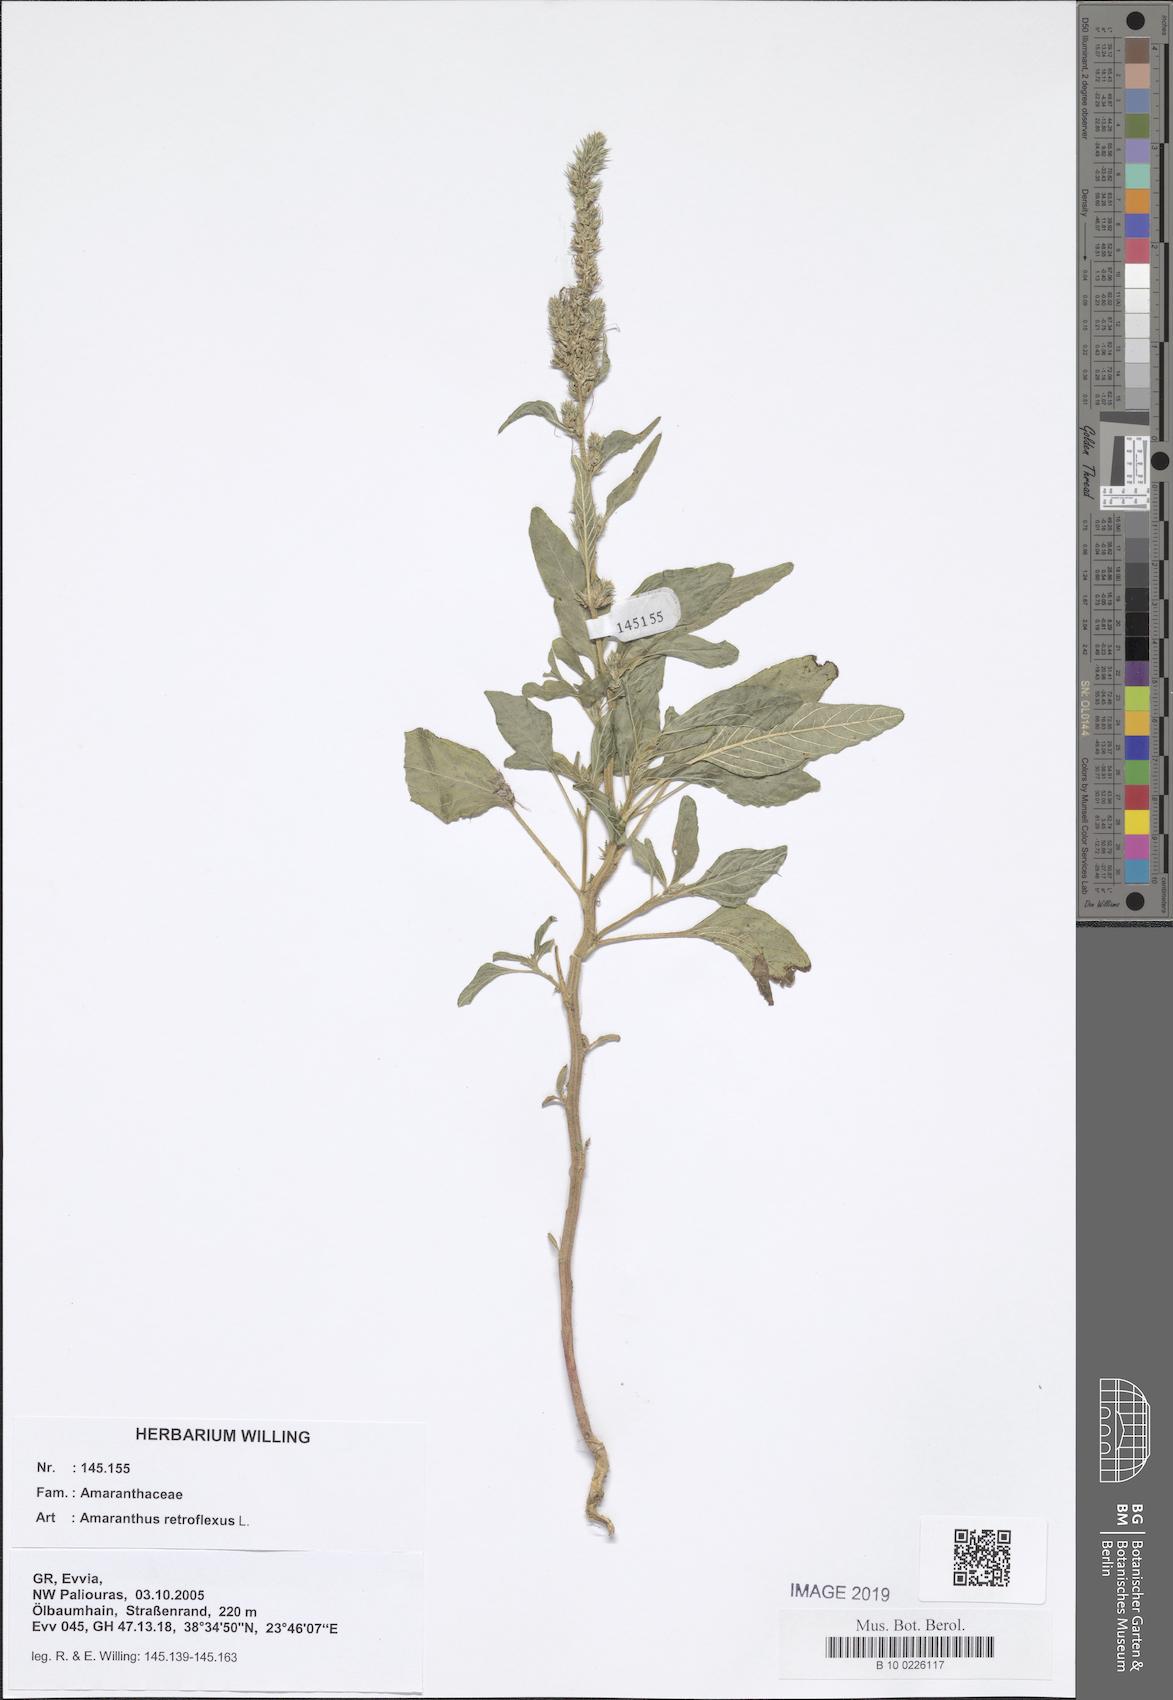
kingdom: Plantae
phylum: Tracheophyta
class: Magnoliopsida
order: Caryophyllales
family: Amaranthaceae
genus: Amaranthus
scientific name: Amaranthus retroflexus
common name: Redroot amaranth
